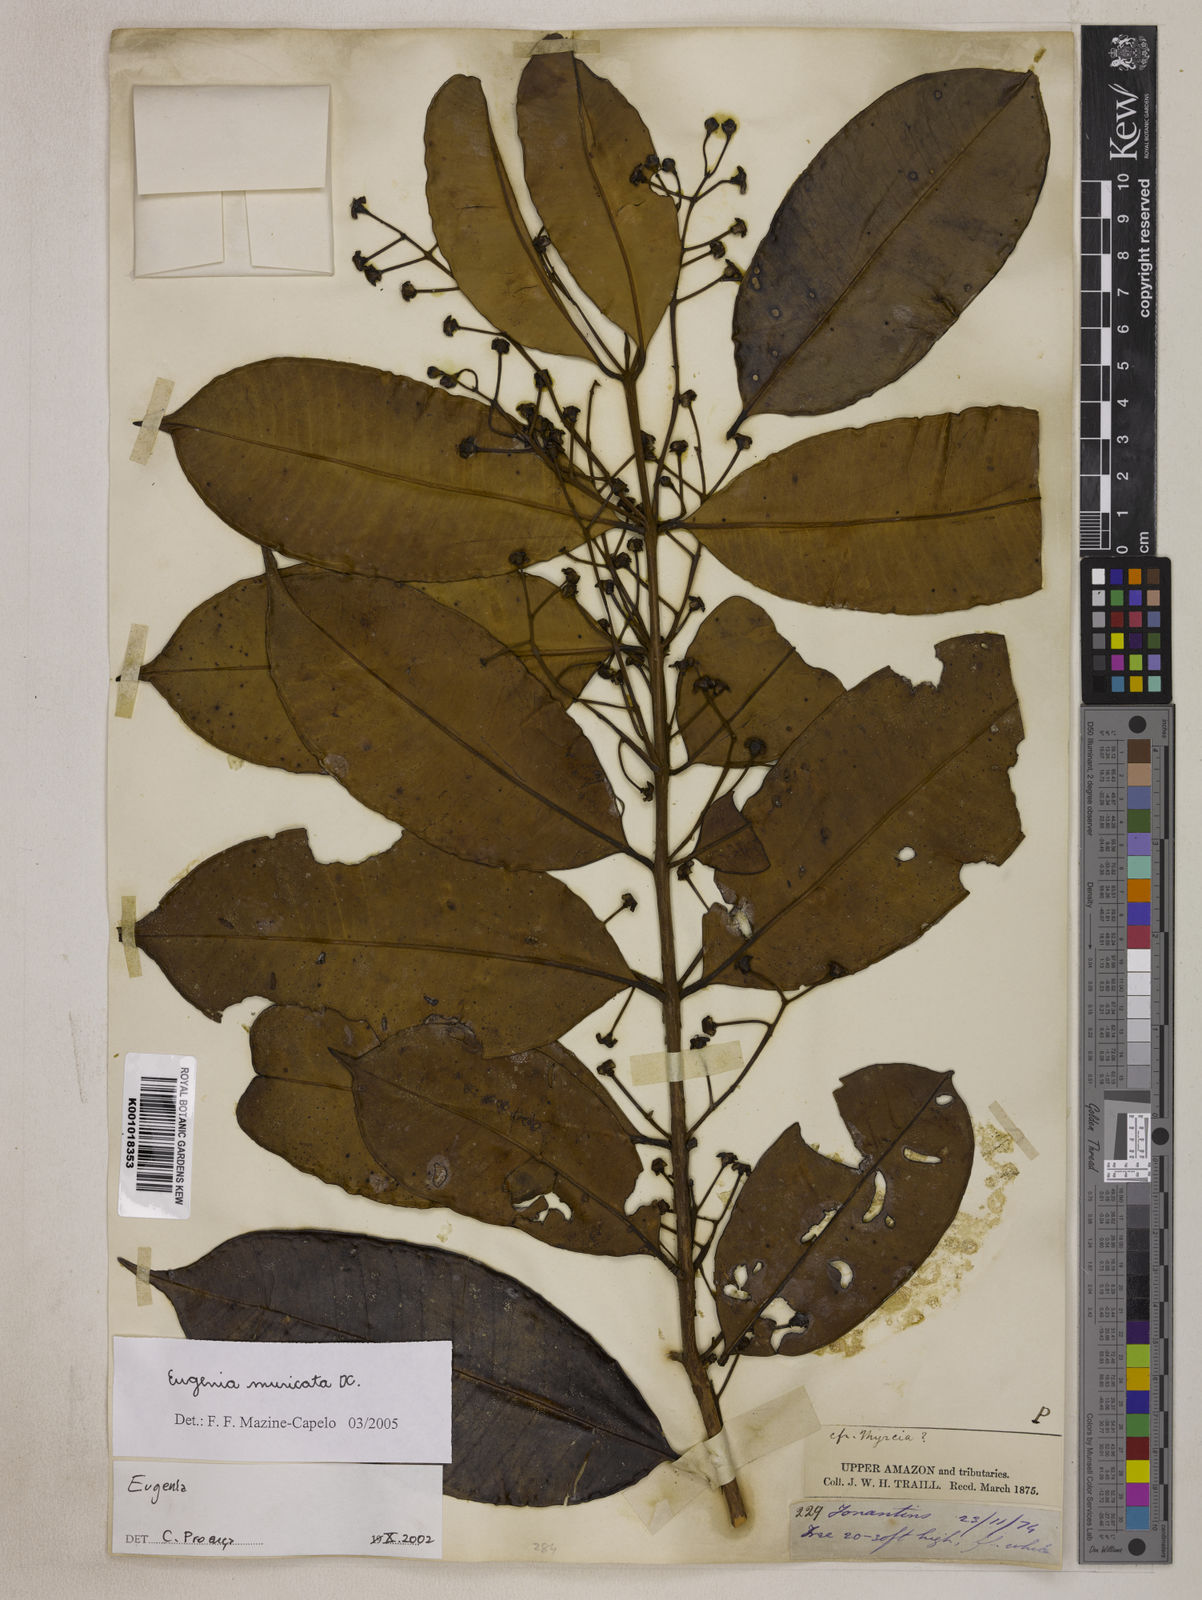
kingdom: Plantae
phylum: Tracheophyta
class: Magnoliopsida
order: Myrtales
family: Myrtaceae
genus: Eugenia
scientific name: Eugenia muricata
